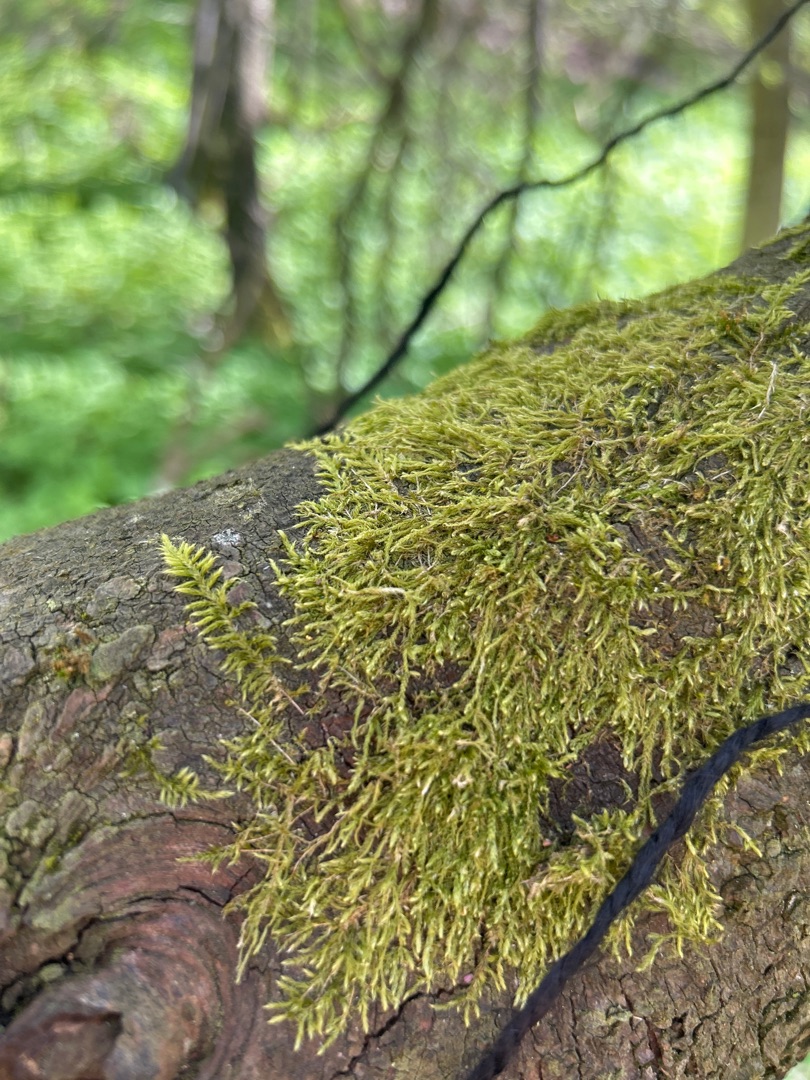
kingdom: Plantae
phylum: Bryophyta
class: Bryopsida
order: Hypnales
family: Hypnaceae
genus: Hypnum
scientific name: Hypnum cupressiforme
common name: Almindelig cypresmos
